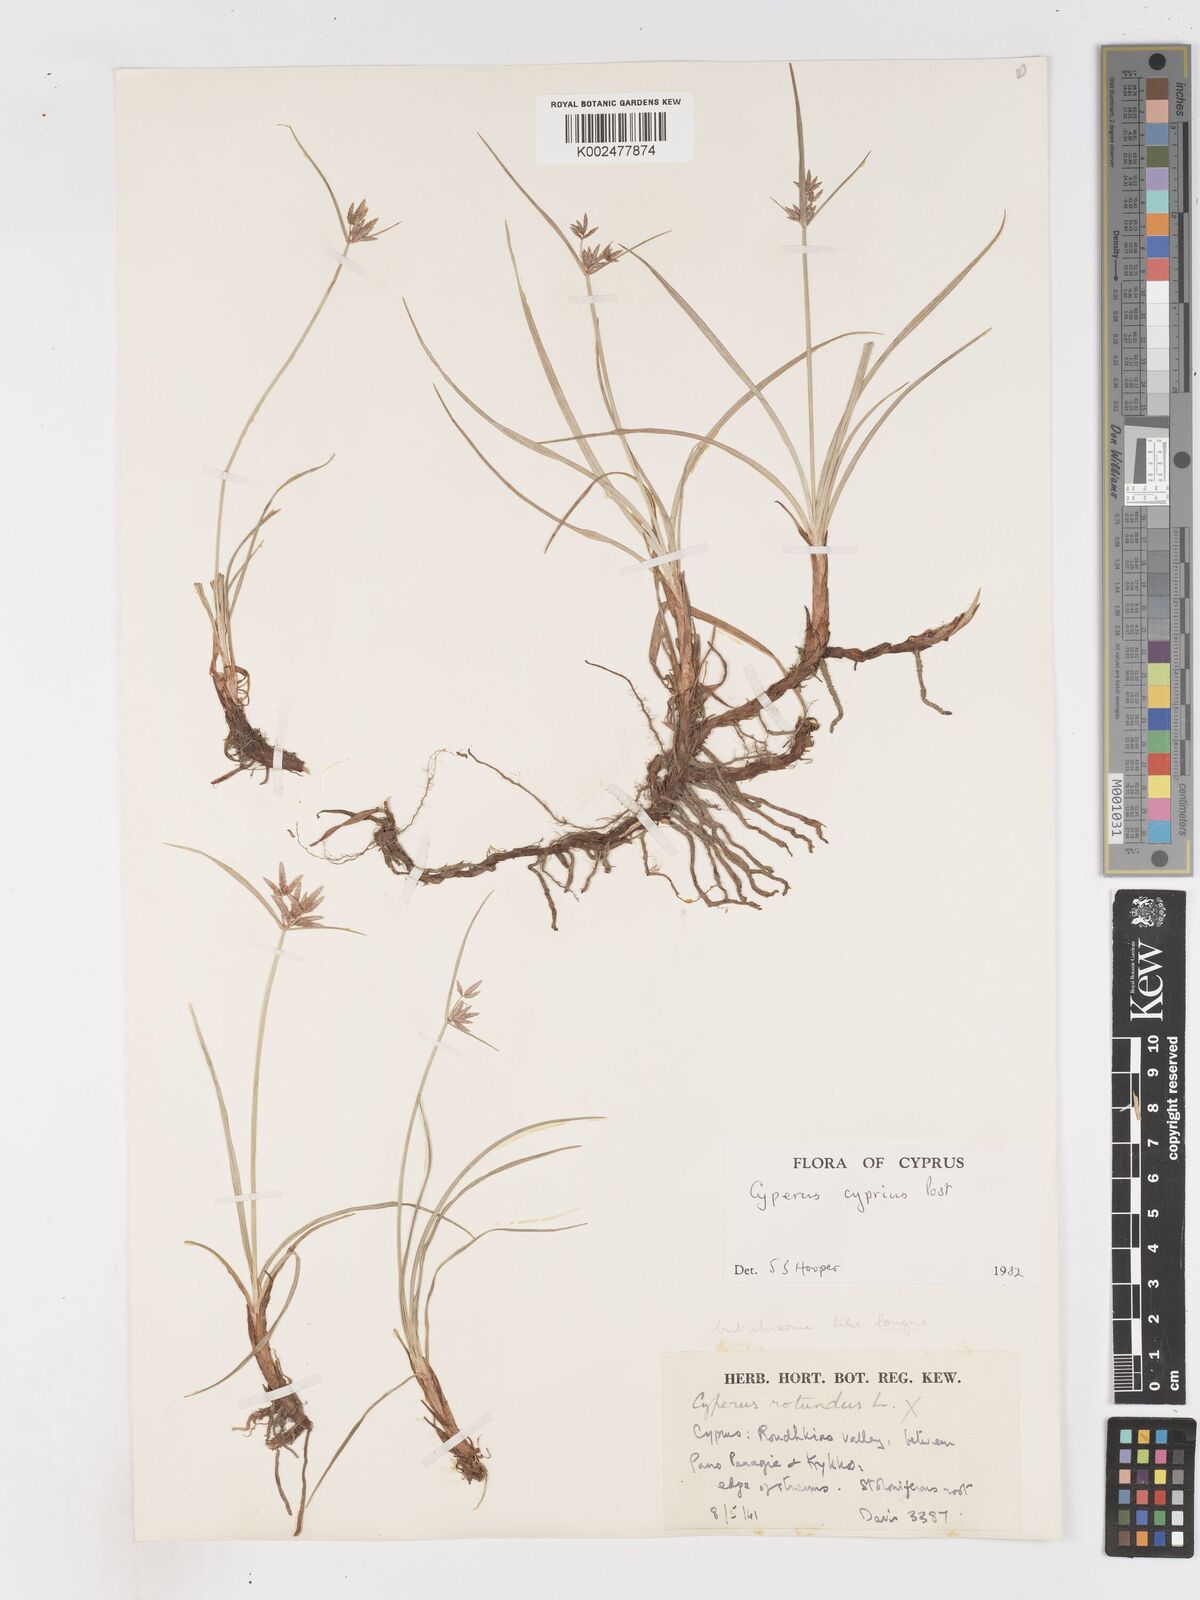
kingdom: Plantae
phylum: Tracheophyta
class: Liliopsida
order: Poales
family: Cyperaceae
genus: Cyperus
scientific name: Cyperus longus
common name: Galingale
